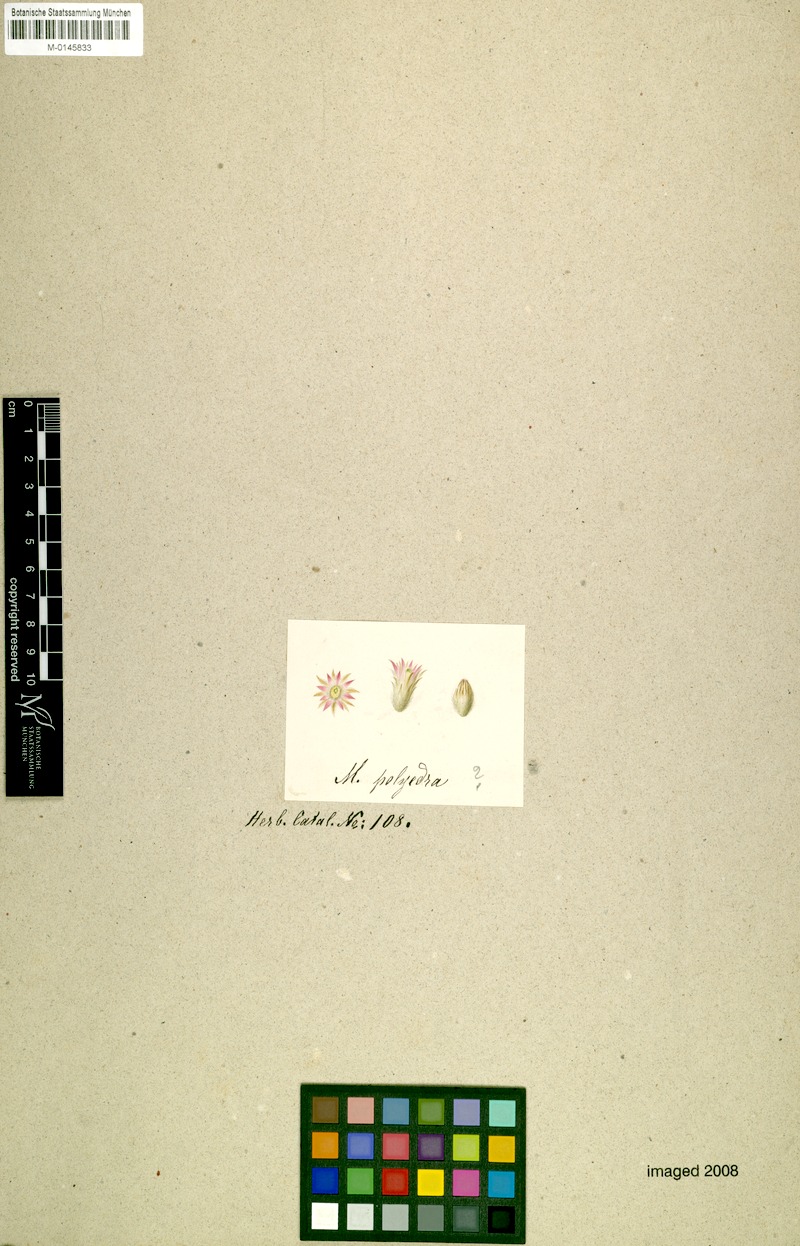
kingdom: Plantae
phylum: Tracheophyta
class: Magnoliopsida
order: Caryophyllales
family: Cactaceae
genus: Mammillaria
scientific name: Mammillaria polyedra
